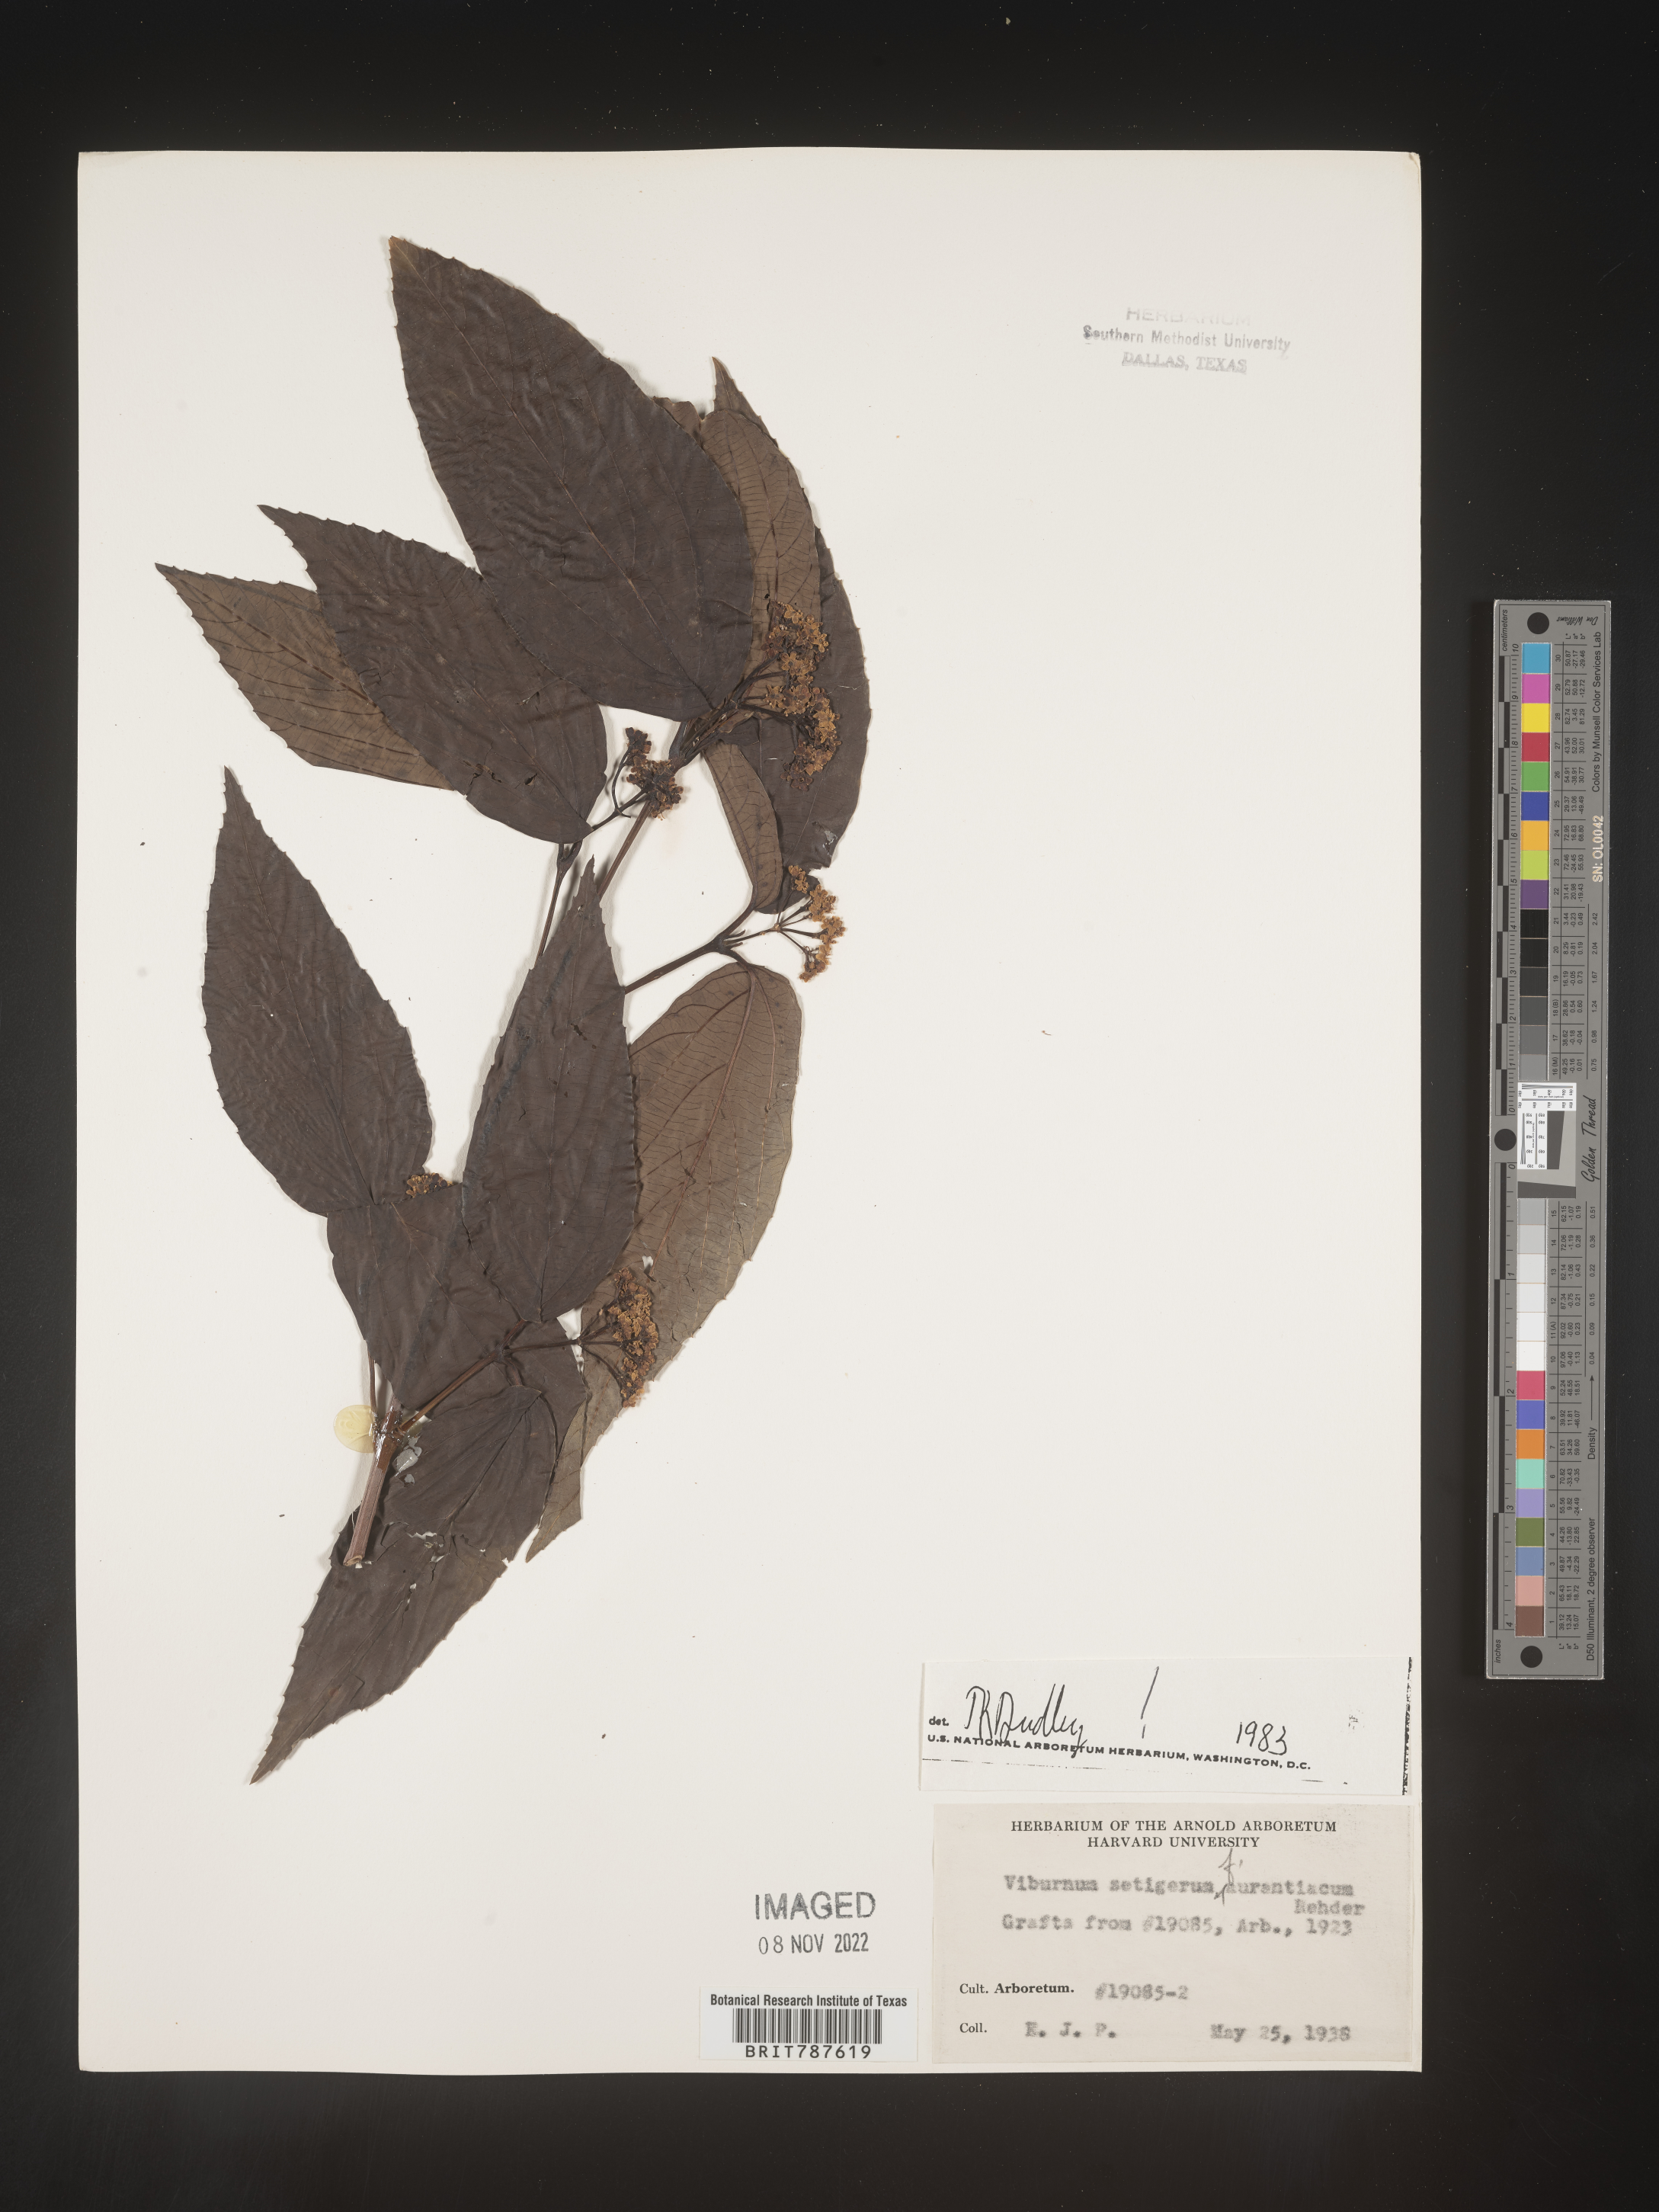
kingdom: Plantae
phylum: Tracheophyta
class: Magnoliopsida
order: Dipsacales
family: Viburnaceae
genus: Viburnum
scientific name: Viburnum
